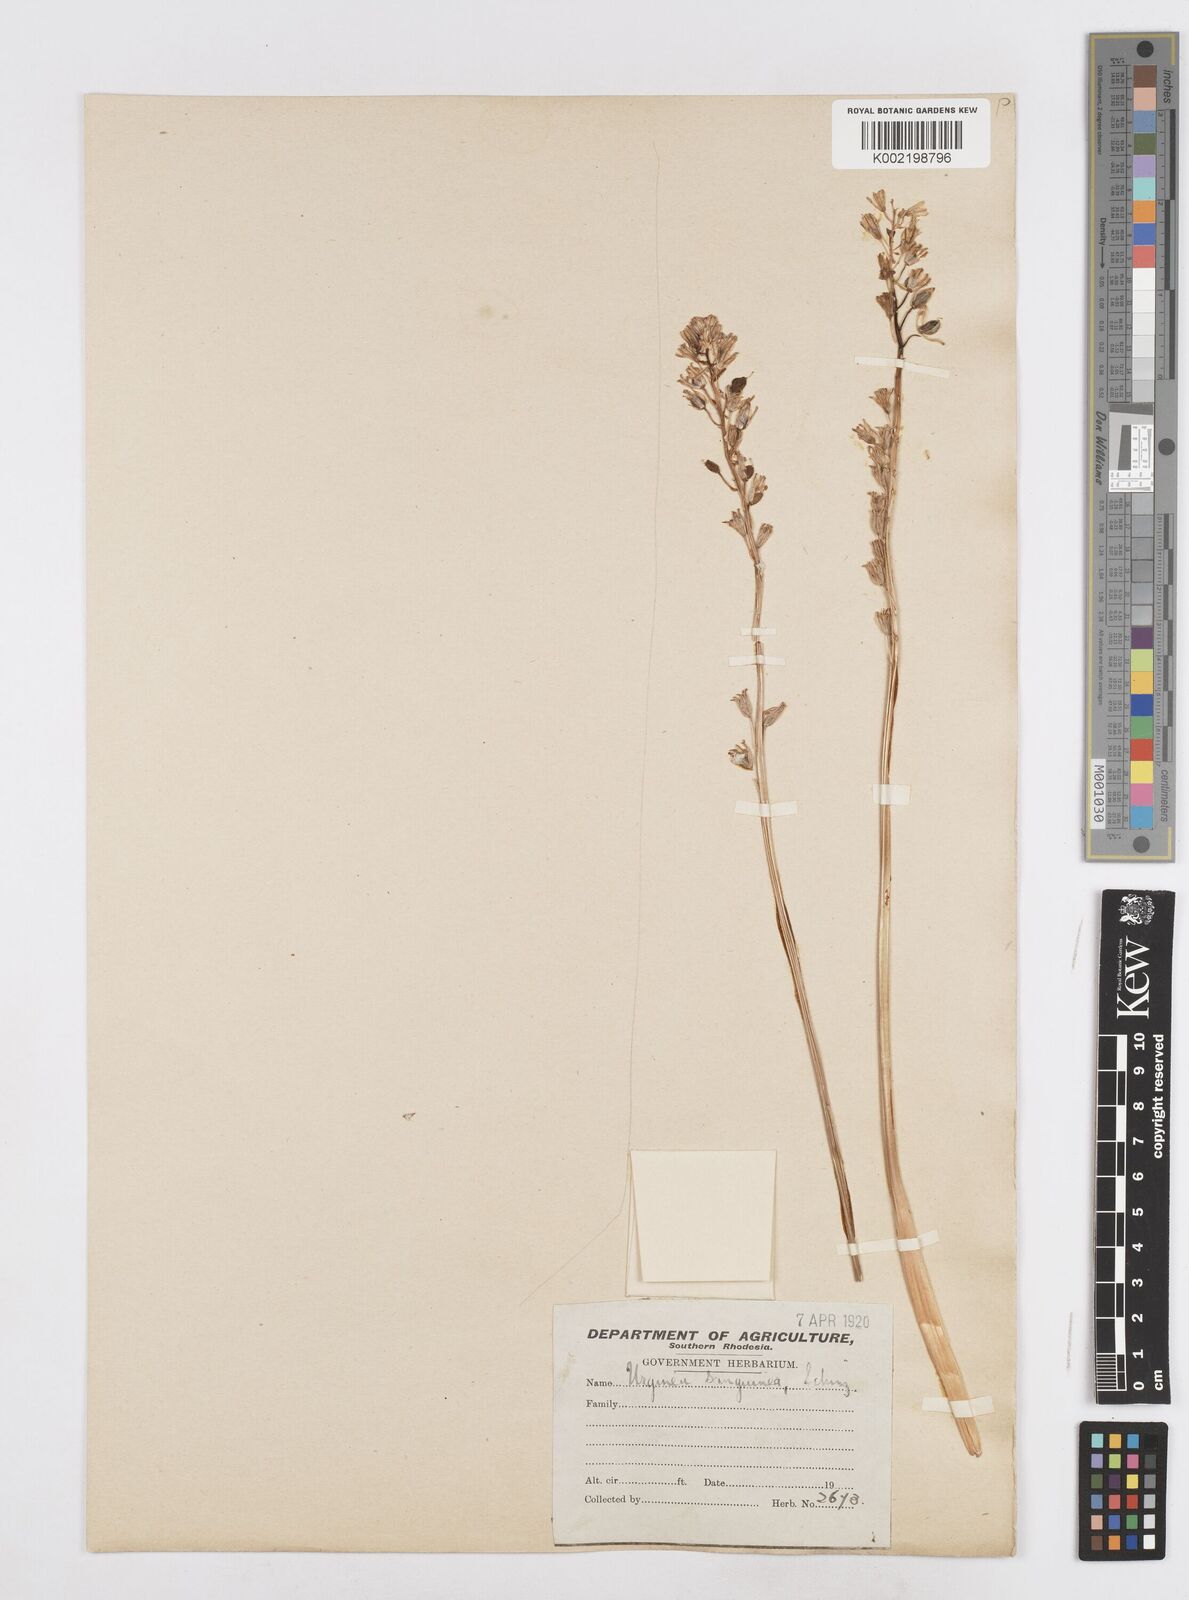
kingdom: Plantae
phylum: Tracheophyta
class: Liliopsida
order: Asparagales
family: Asparagaceae
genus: Drimia
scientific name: Drimia sanguinea
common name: Transvaal slangkop
